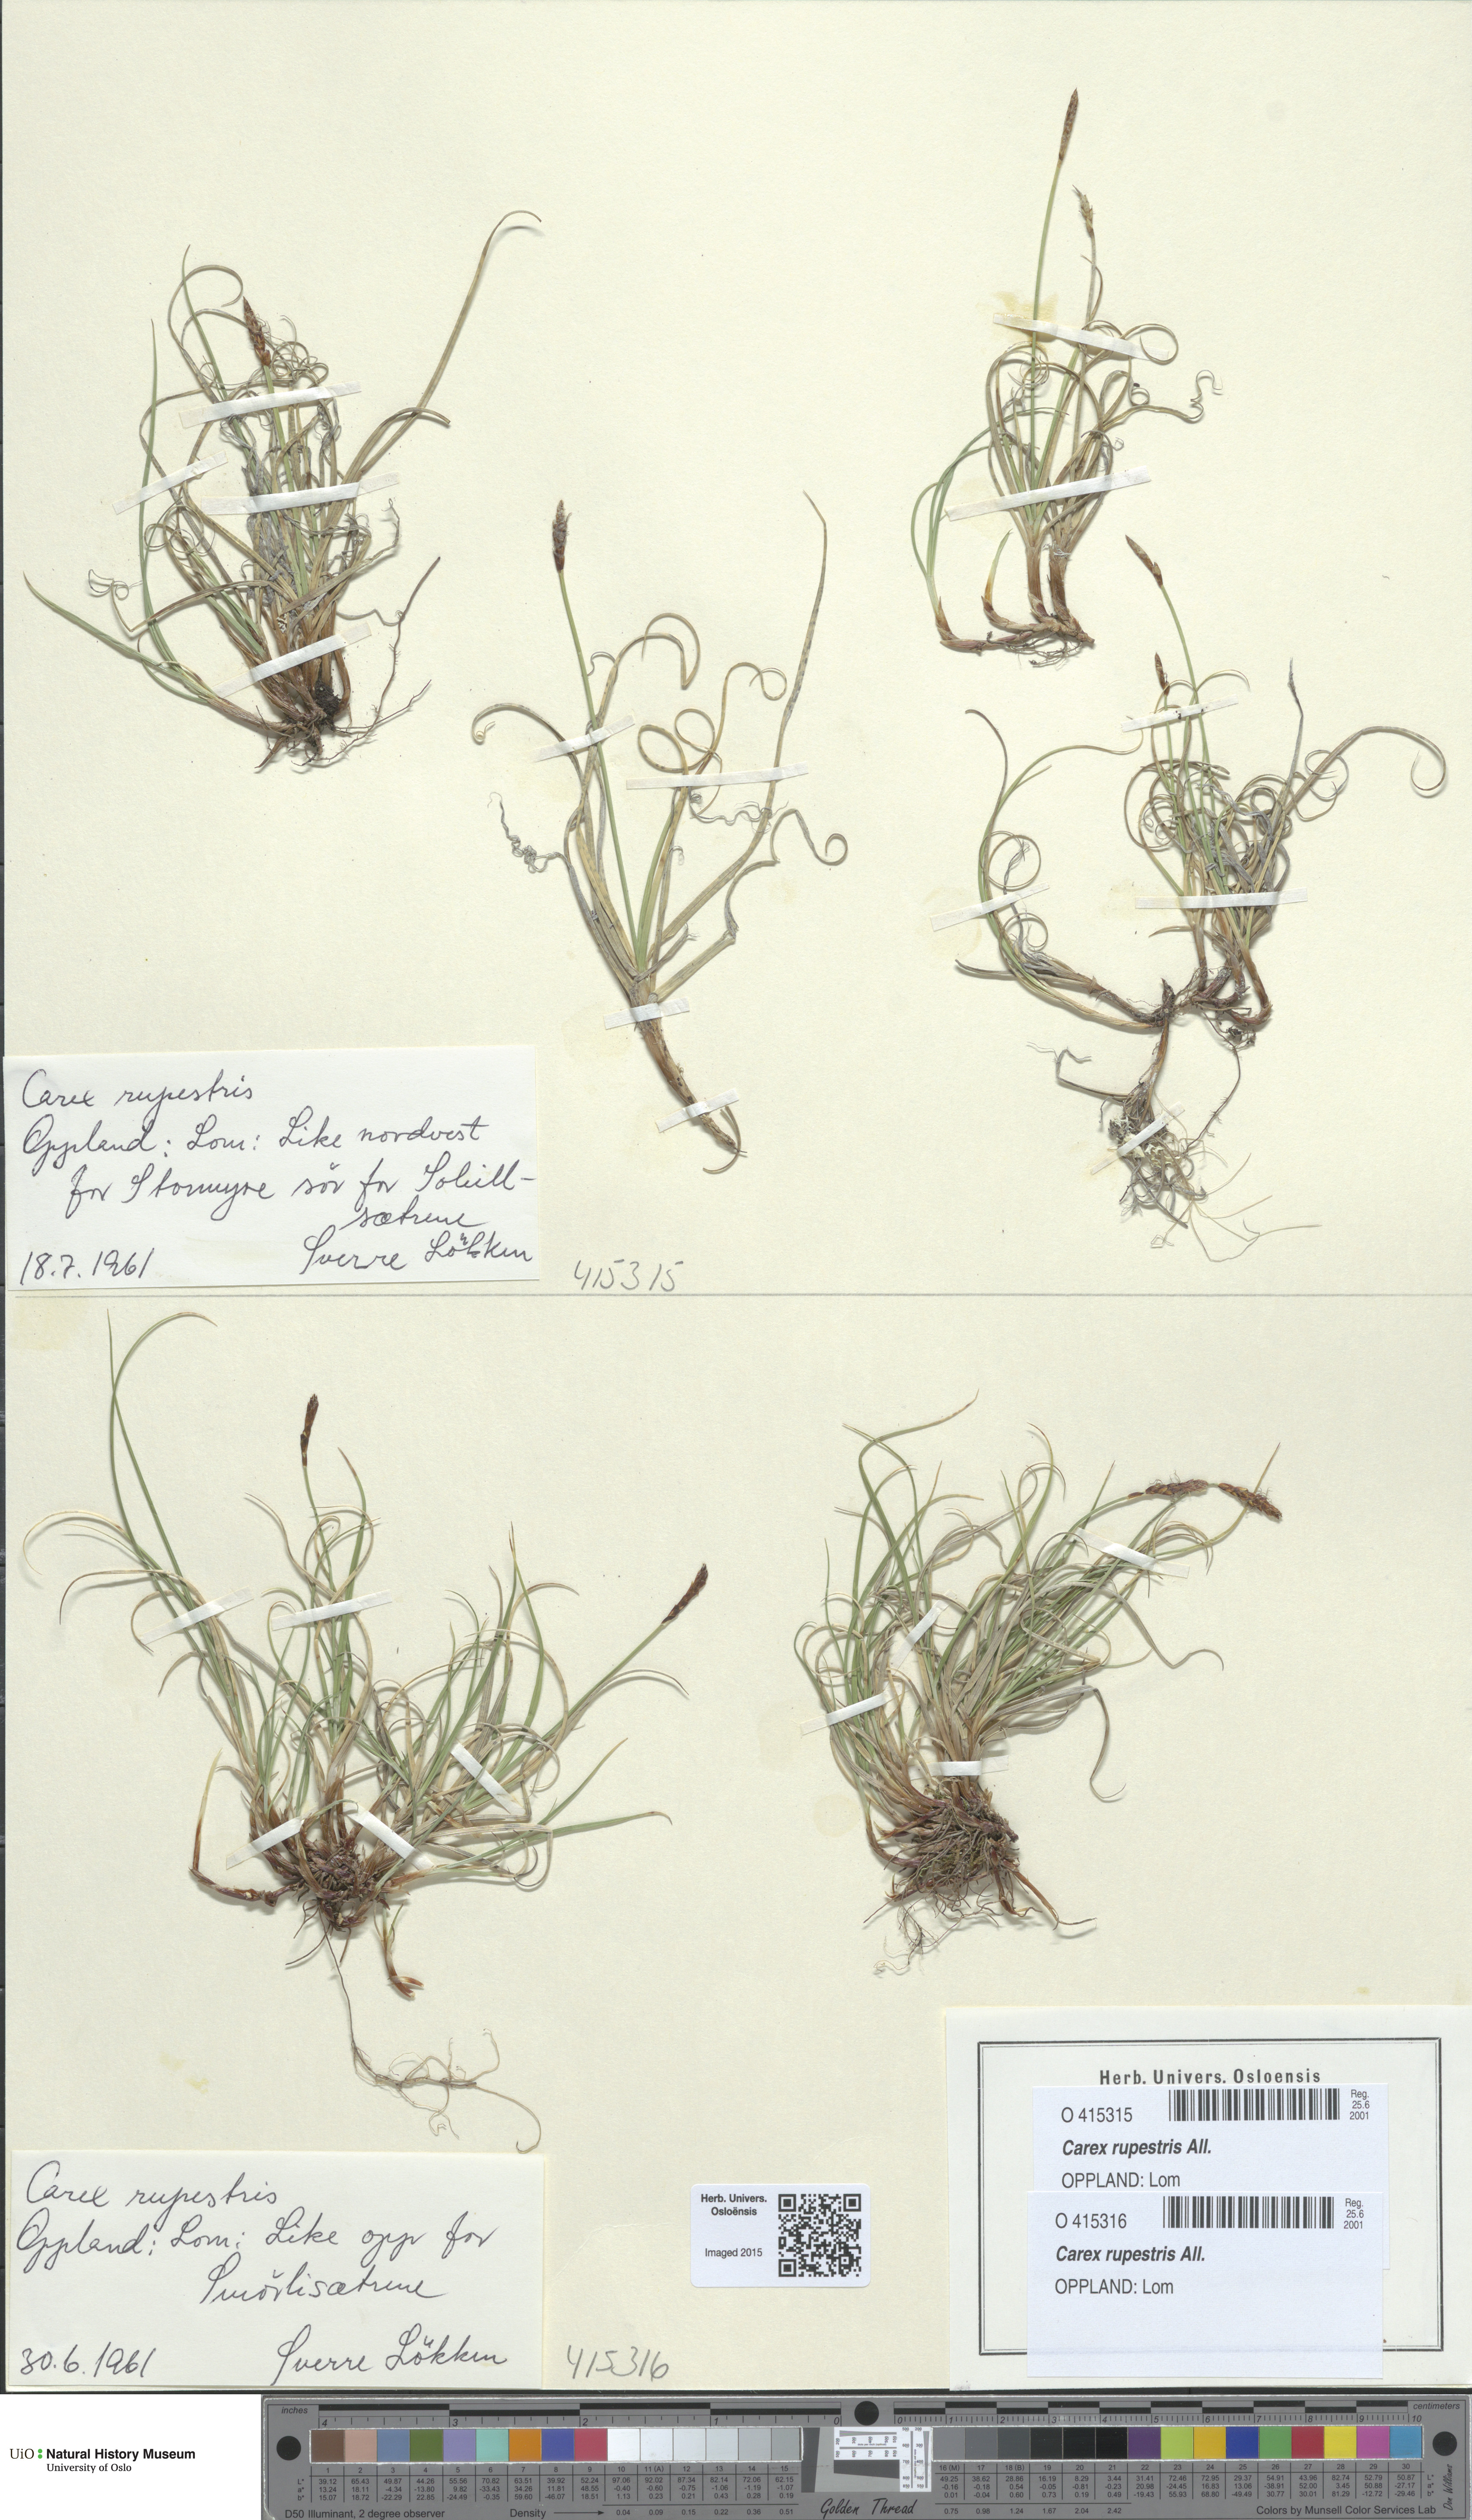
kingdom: Plantae
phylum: Tracheophyta
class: Liliopsida
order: Poales
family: Cyperaceae
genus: Carex
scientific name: Carex rupestris
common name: Rock sedge
